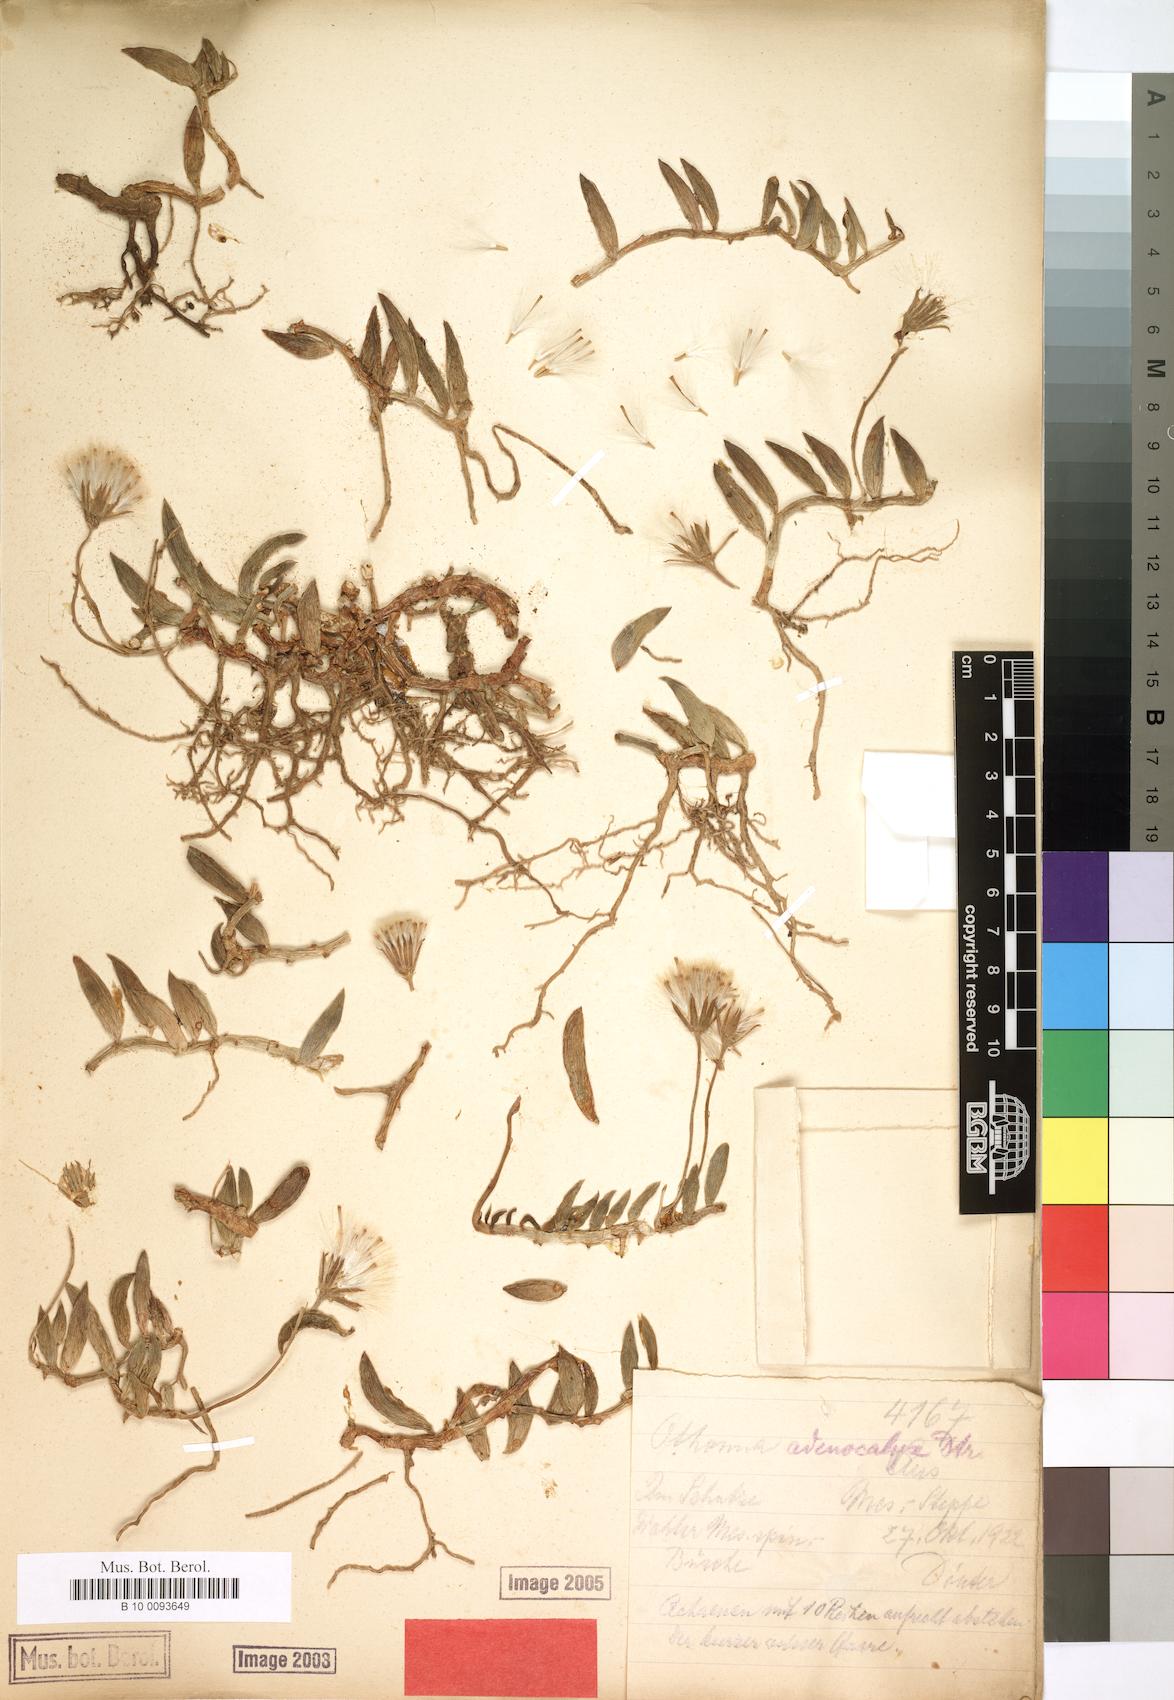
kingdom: Plantae
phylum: Tracheophyta
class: Magnoliopsida
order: Asterales
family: Asteraceae
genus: Curio
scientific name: Curio radicans
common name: Creeping-berry
